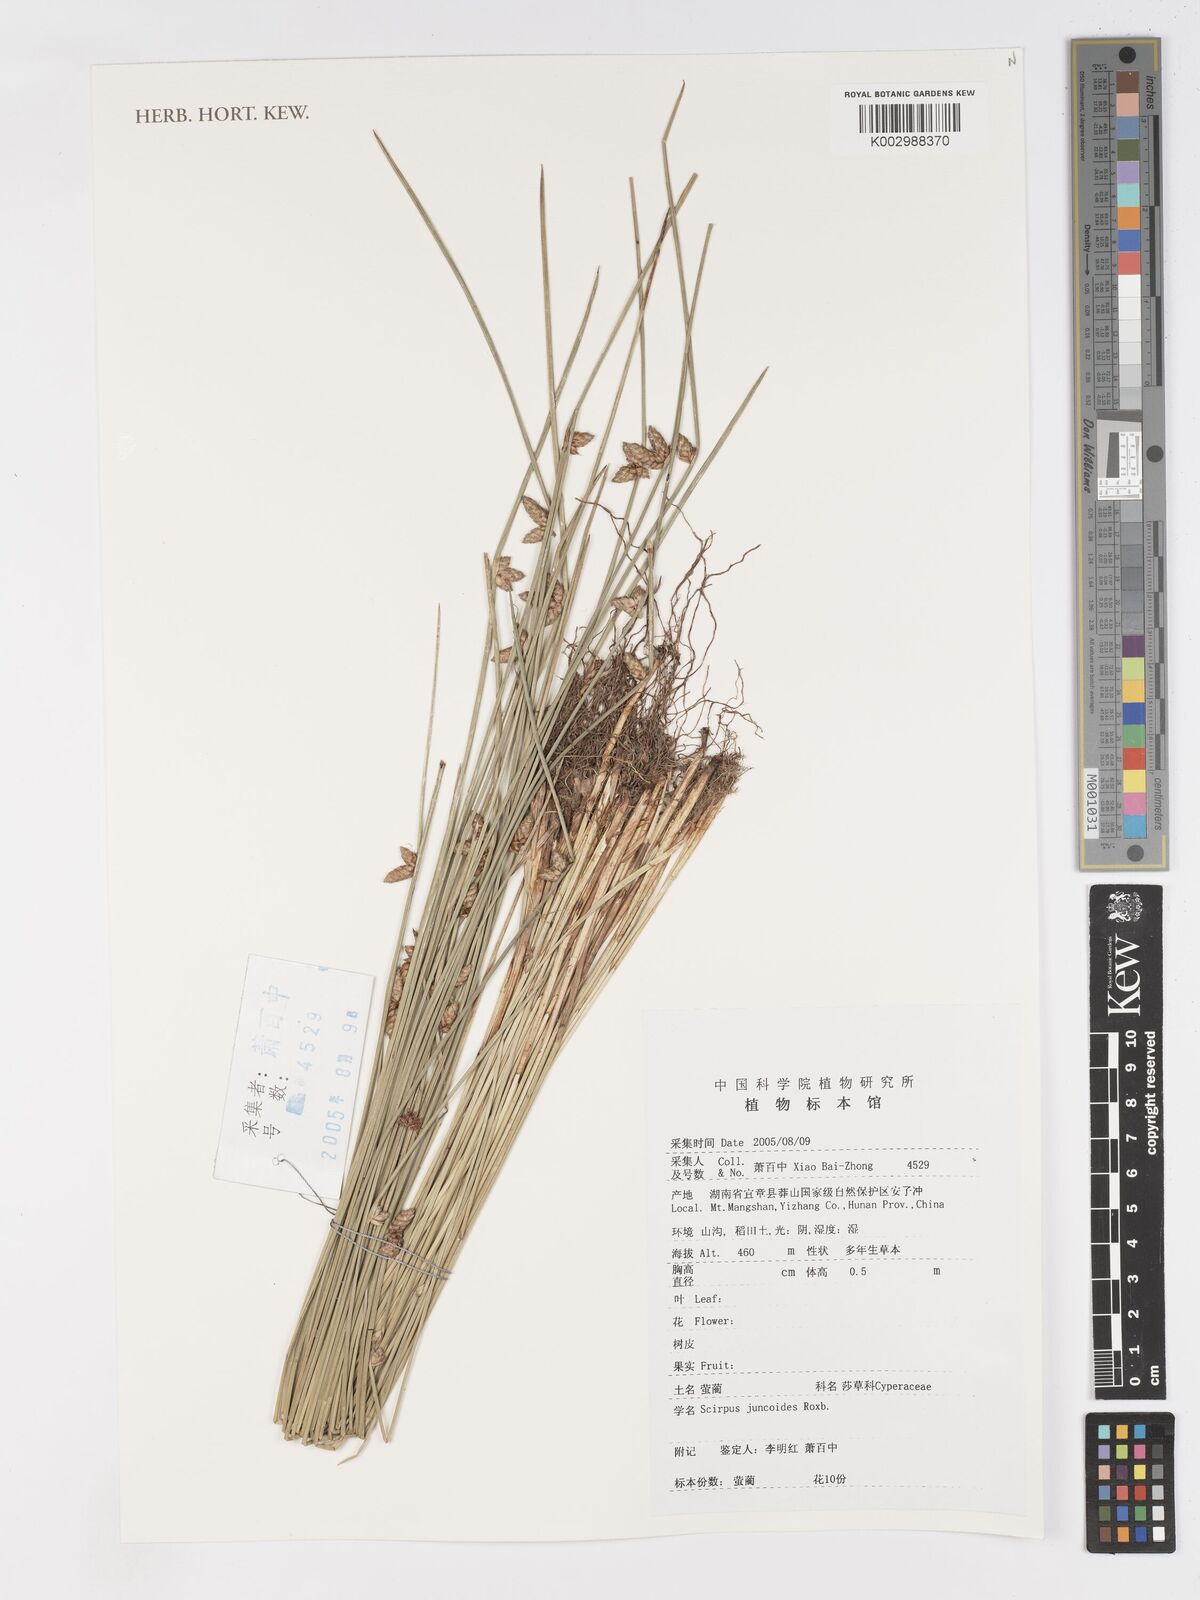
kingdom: Plantae
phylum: Tracheophyta
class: Liliopsida
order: Poales
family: Cyperaceae
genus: Schoenoplectiella
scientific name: Schoenoplectiella juncoides
